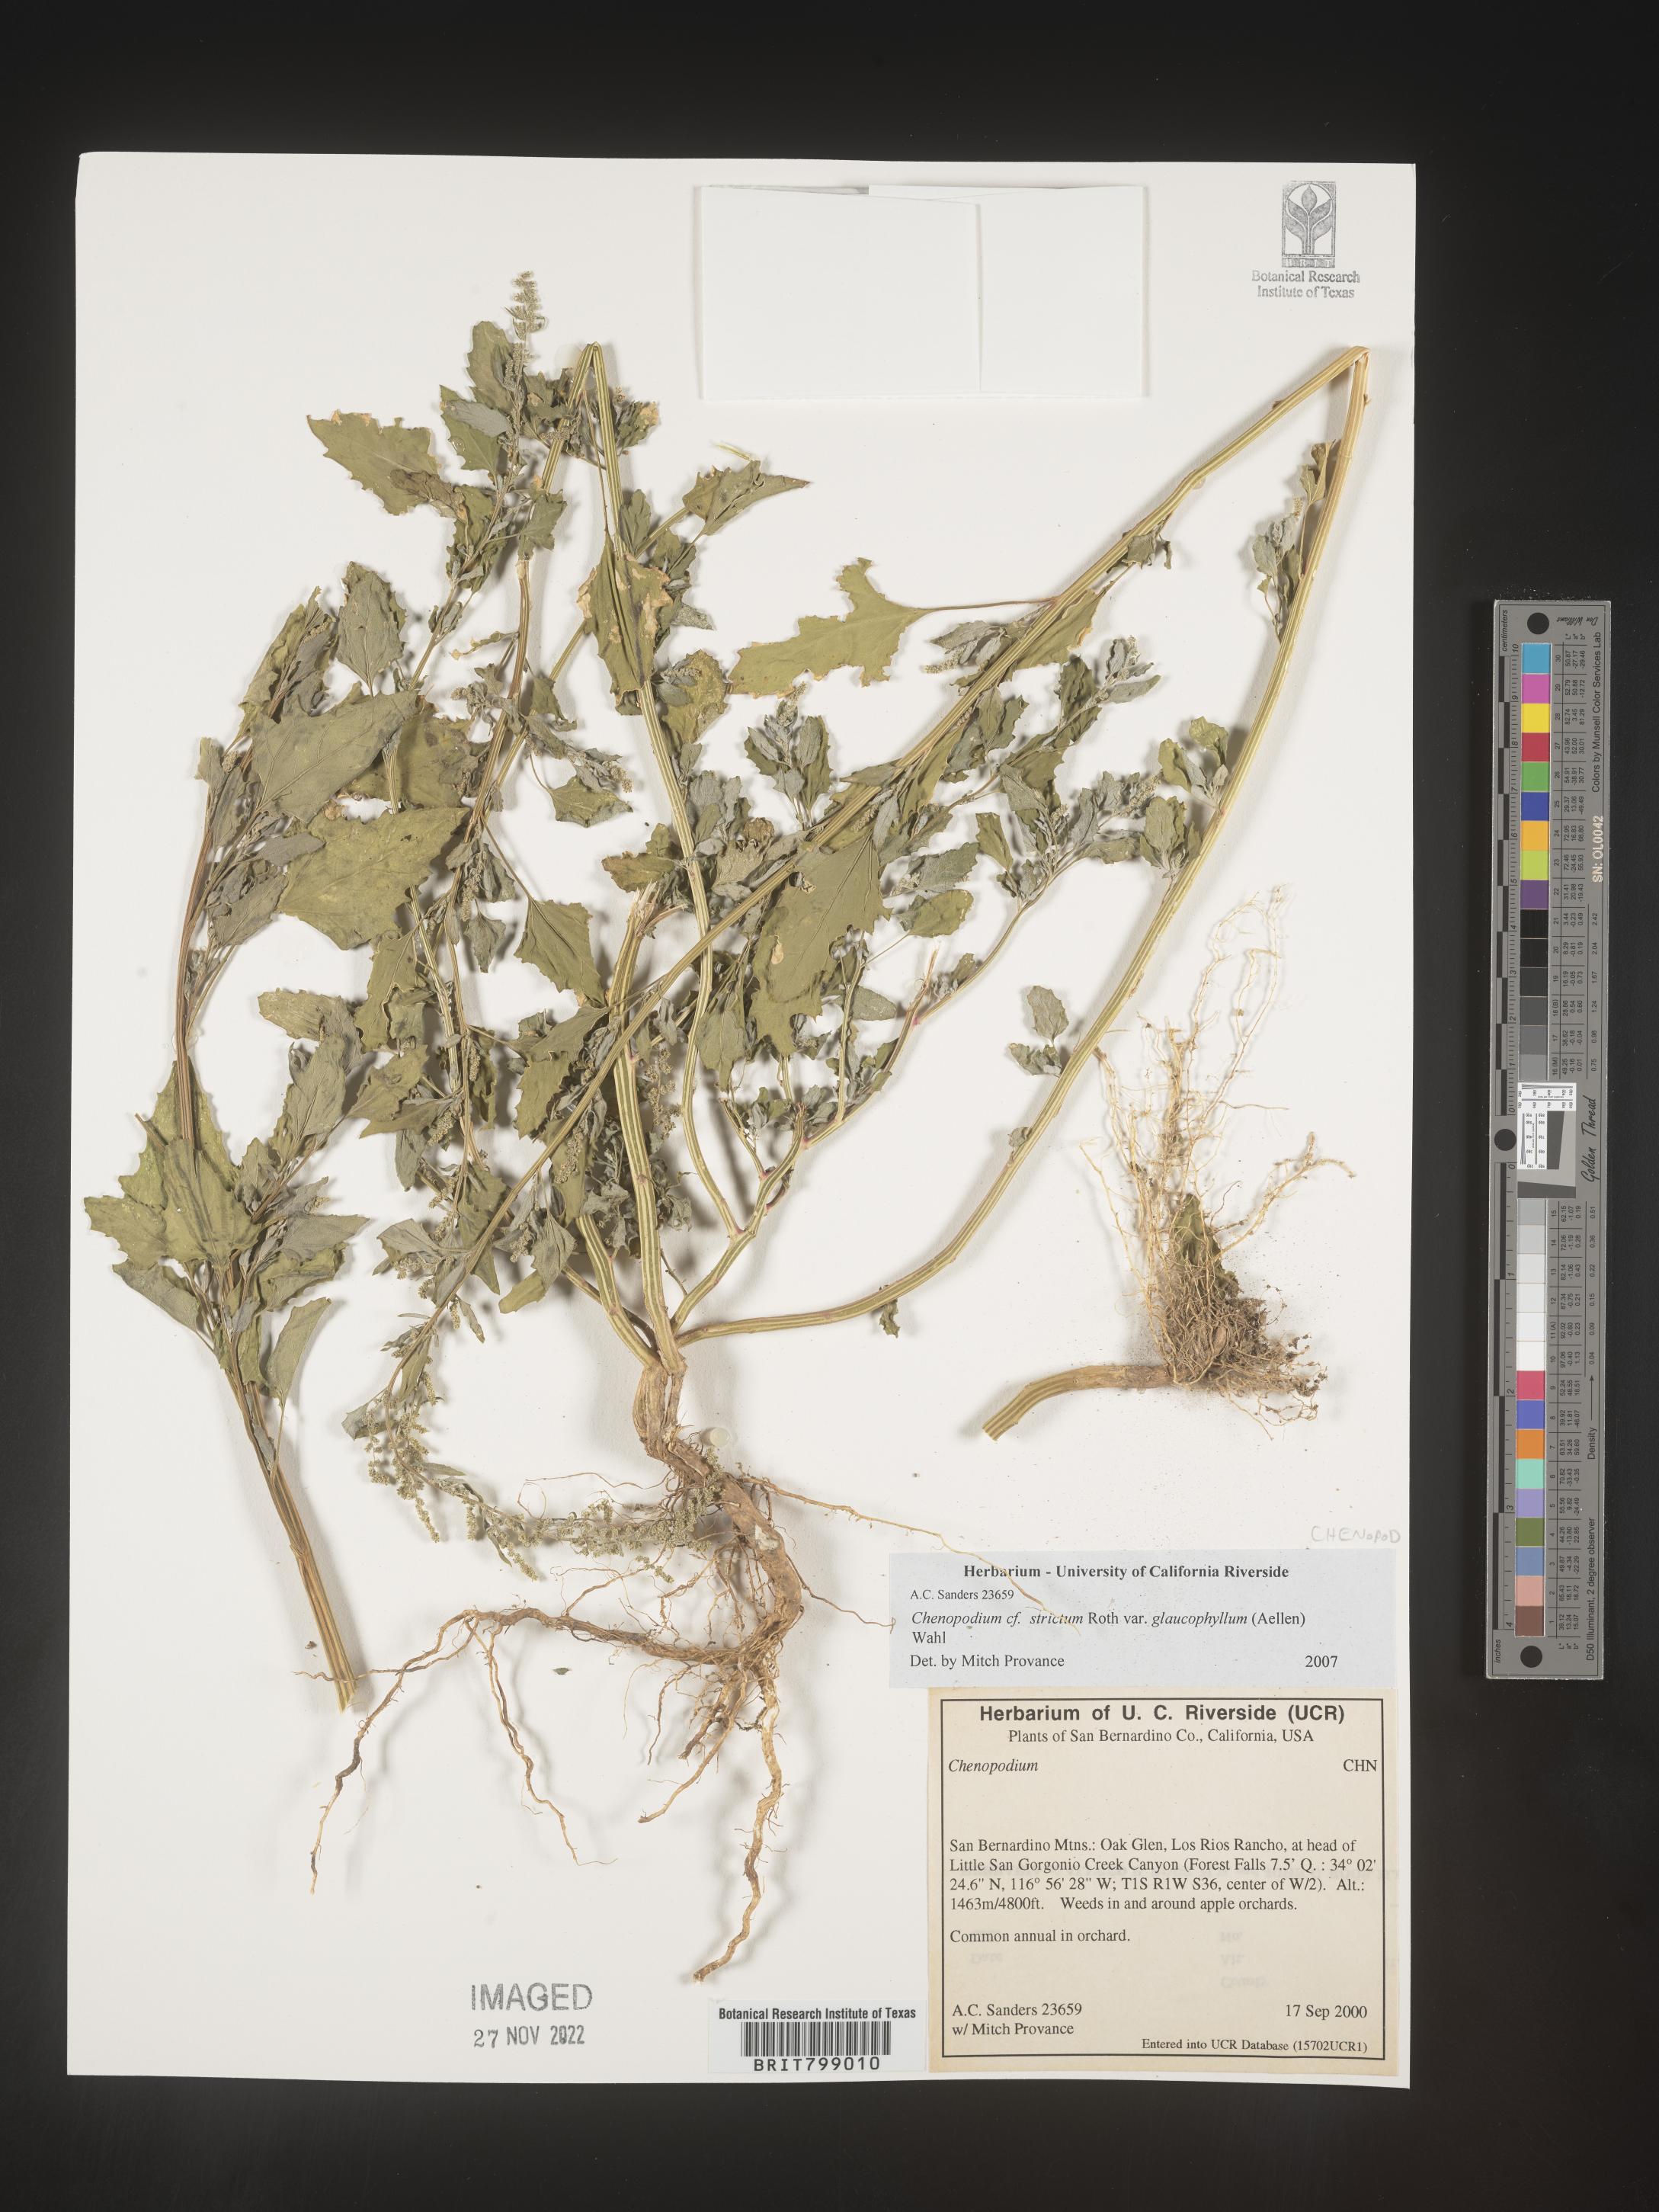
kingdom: Plantae
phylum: Tracheophyta
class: Magnoliopsida
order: Caryophyllales
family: Amaranthaceae
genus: Chenopodium
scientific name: Chenopodium album
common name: Fat-hen
